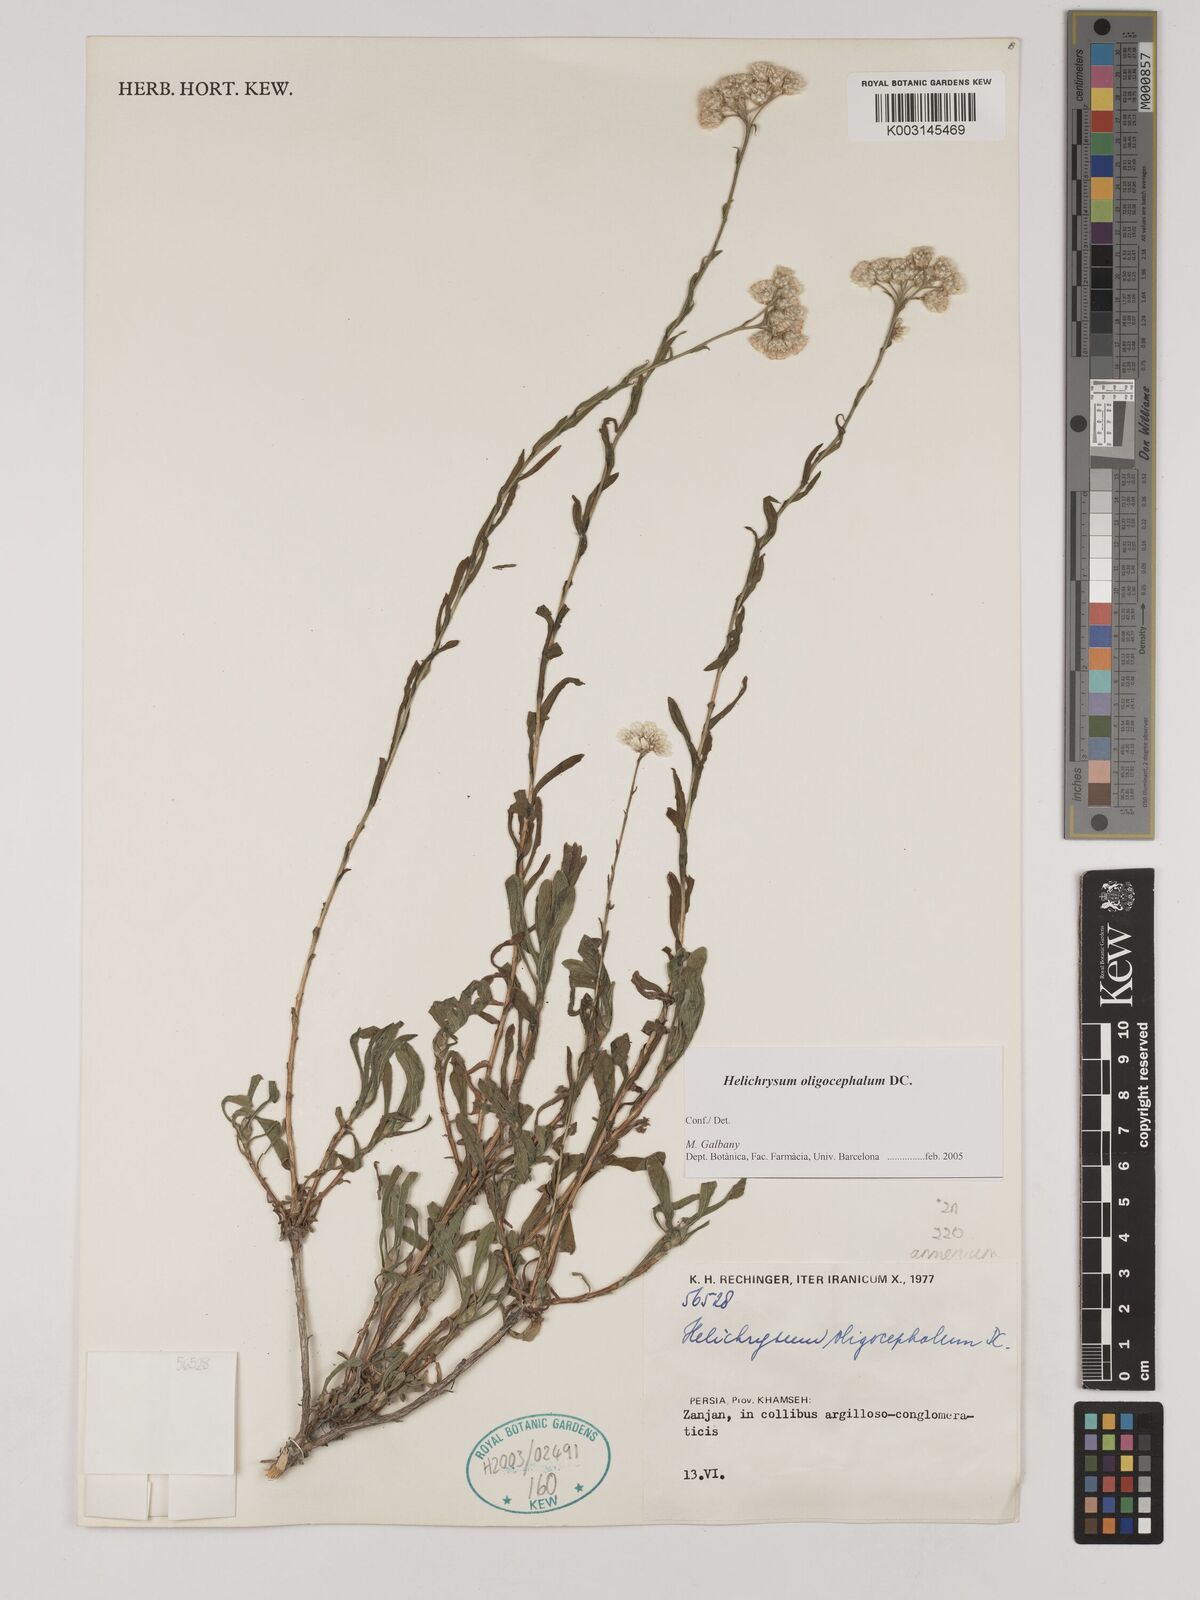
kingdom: Plantae
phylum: Tracheophyta
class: Magnoliopsida
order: Asterales
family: Asteraceae
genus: Helichrysum
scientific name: Helichrysum armenium
